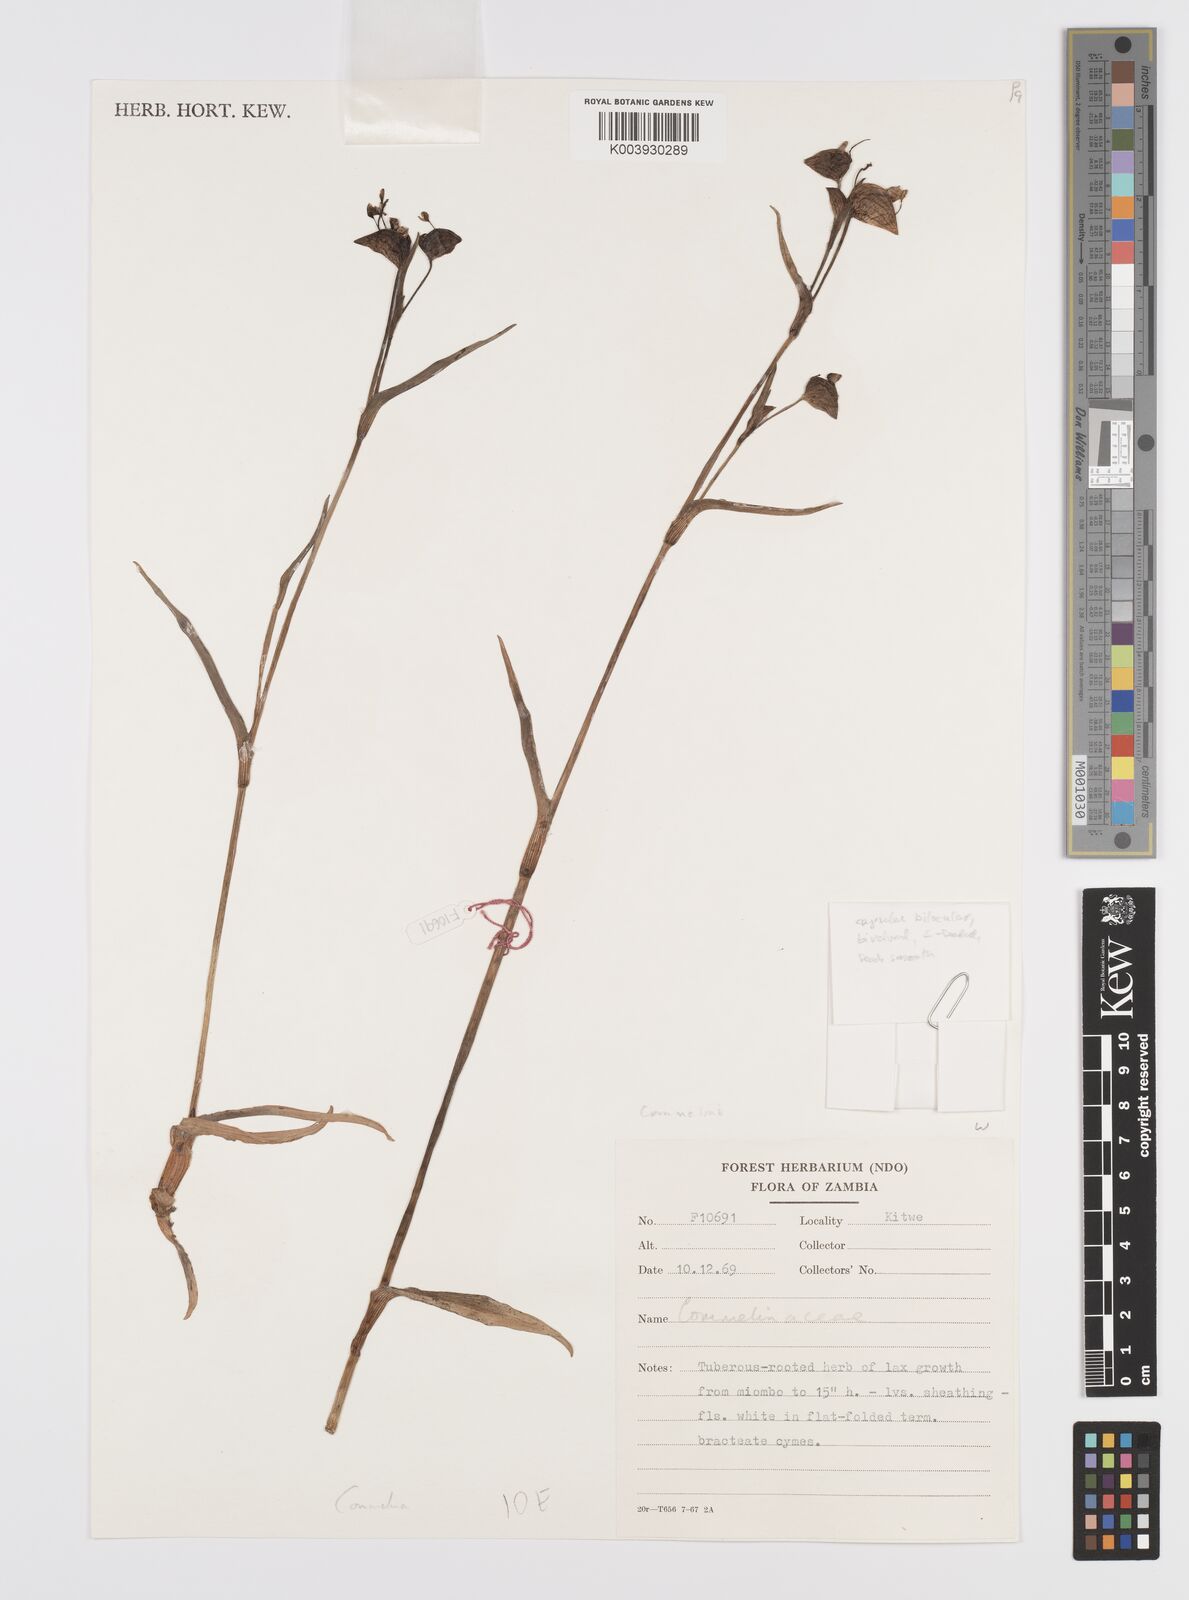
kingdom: Plantae
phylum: Tracheophyta
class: Liliopsida
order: Commelinales
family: Commelinaceae
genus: Commelina
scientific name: Commelina schweinfurthii
